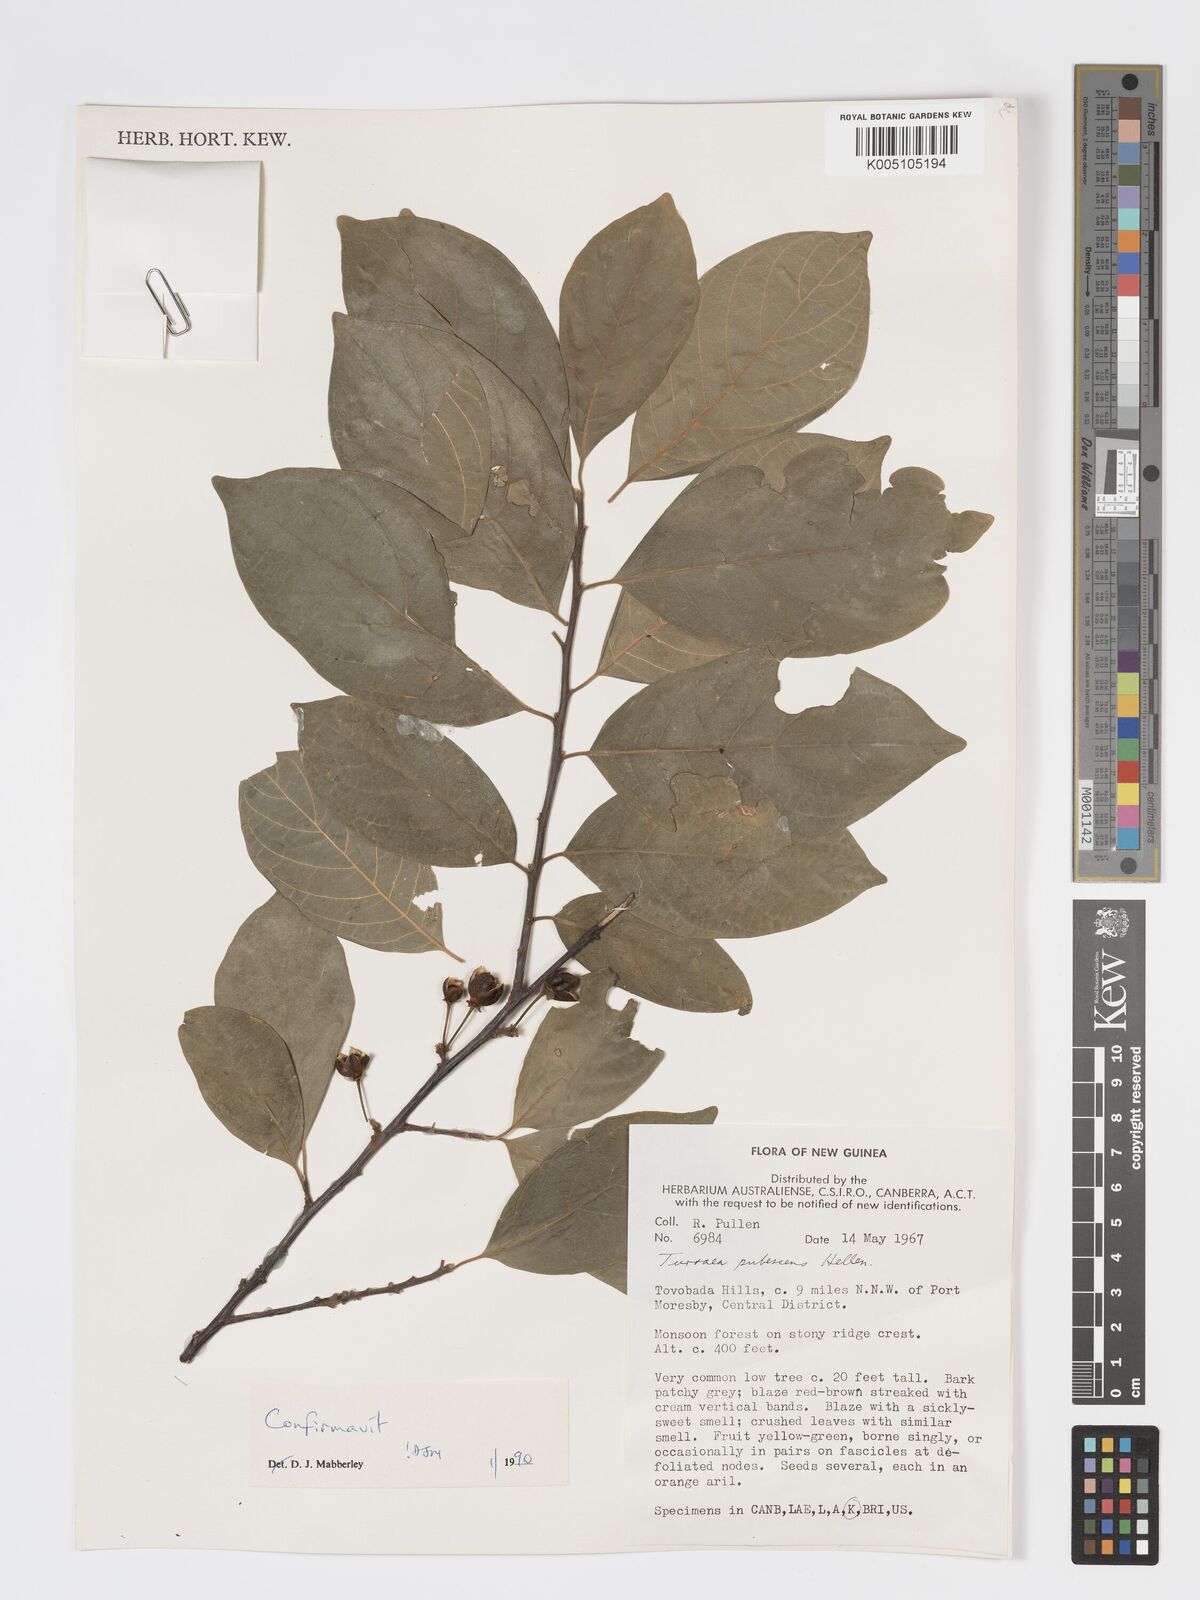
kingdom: Plantae
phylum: Tracheophyta
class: Magnoliopsida
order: Sapindales
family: Meliaceae
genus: Turraea
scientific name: Turraea
